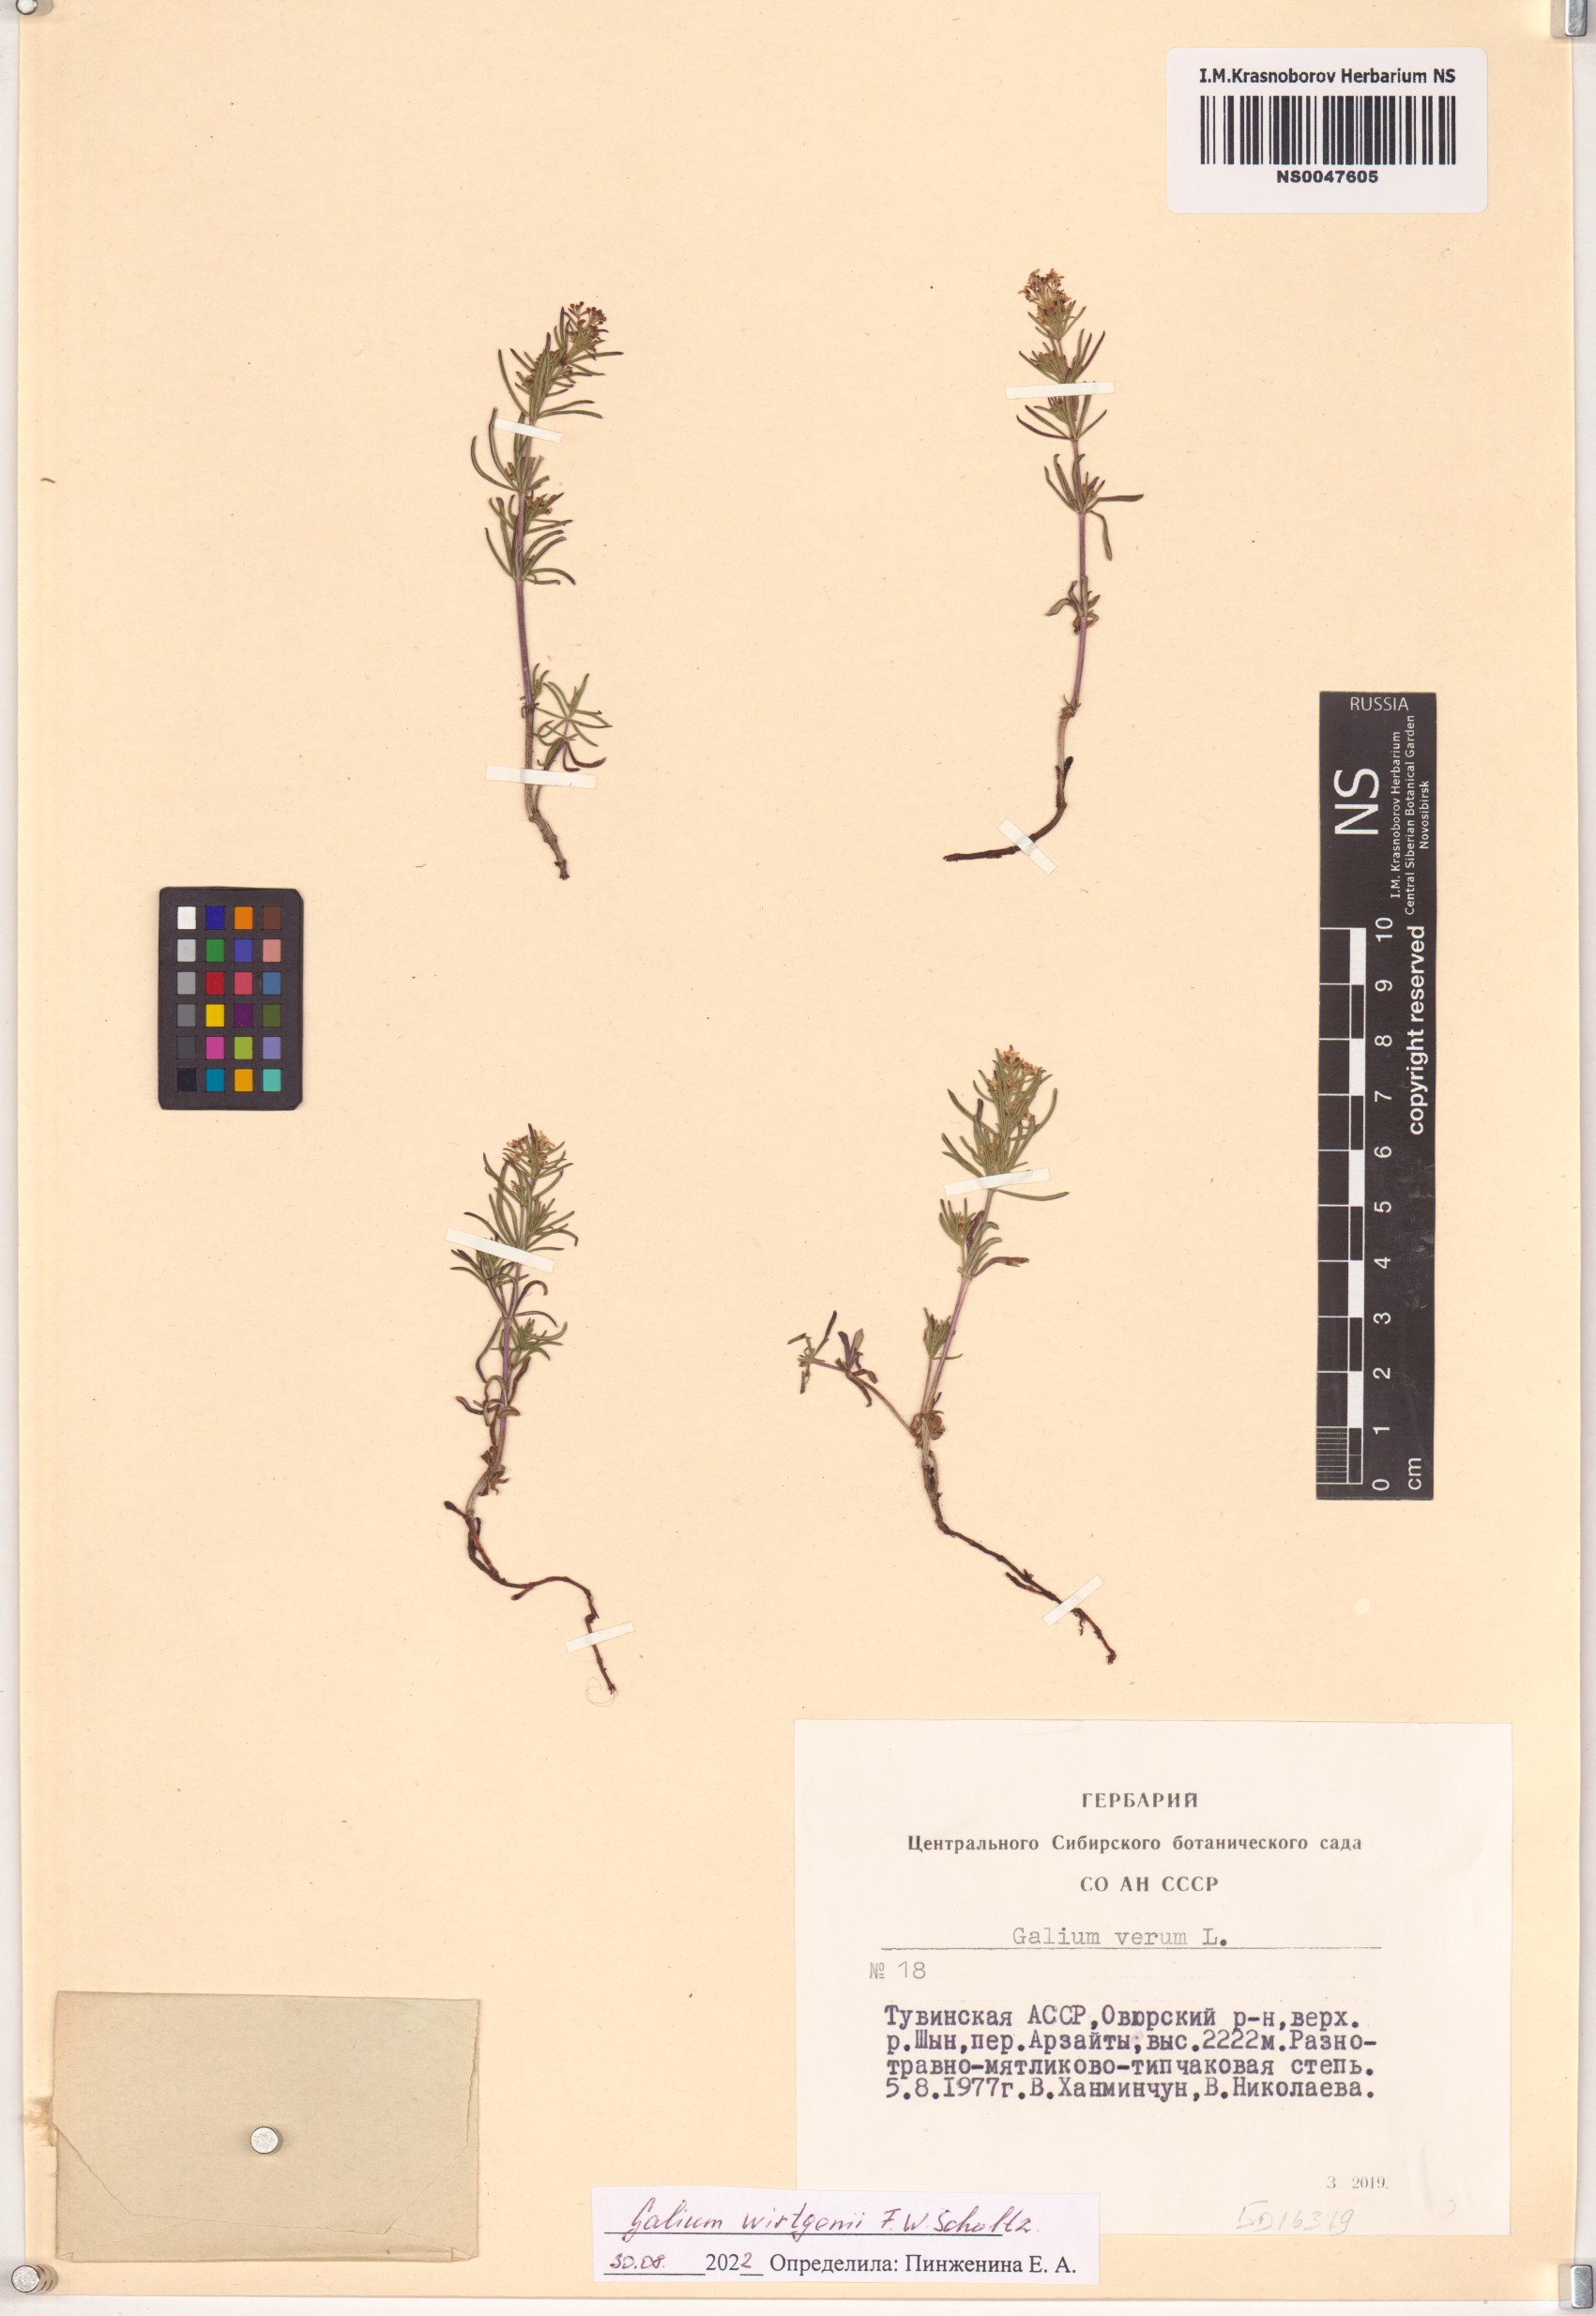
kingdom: Plantae
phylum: Tracheophyta
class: Magnoliopsida
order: Gentianales
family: Rubiaceae
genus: Galium
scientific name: Galium verum
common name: Lady's bedstraw
